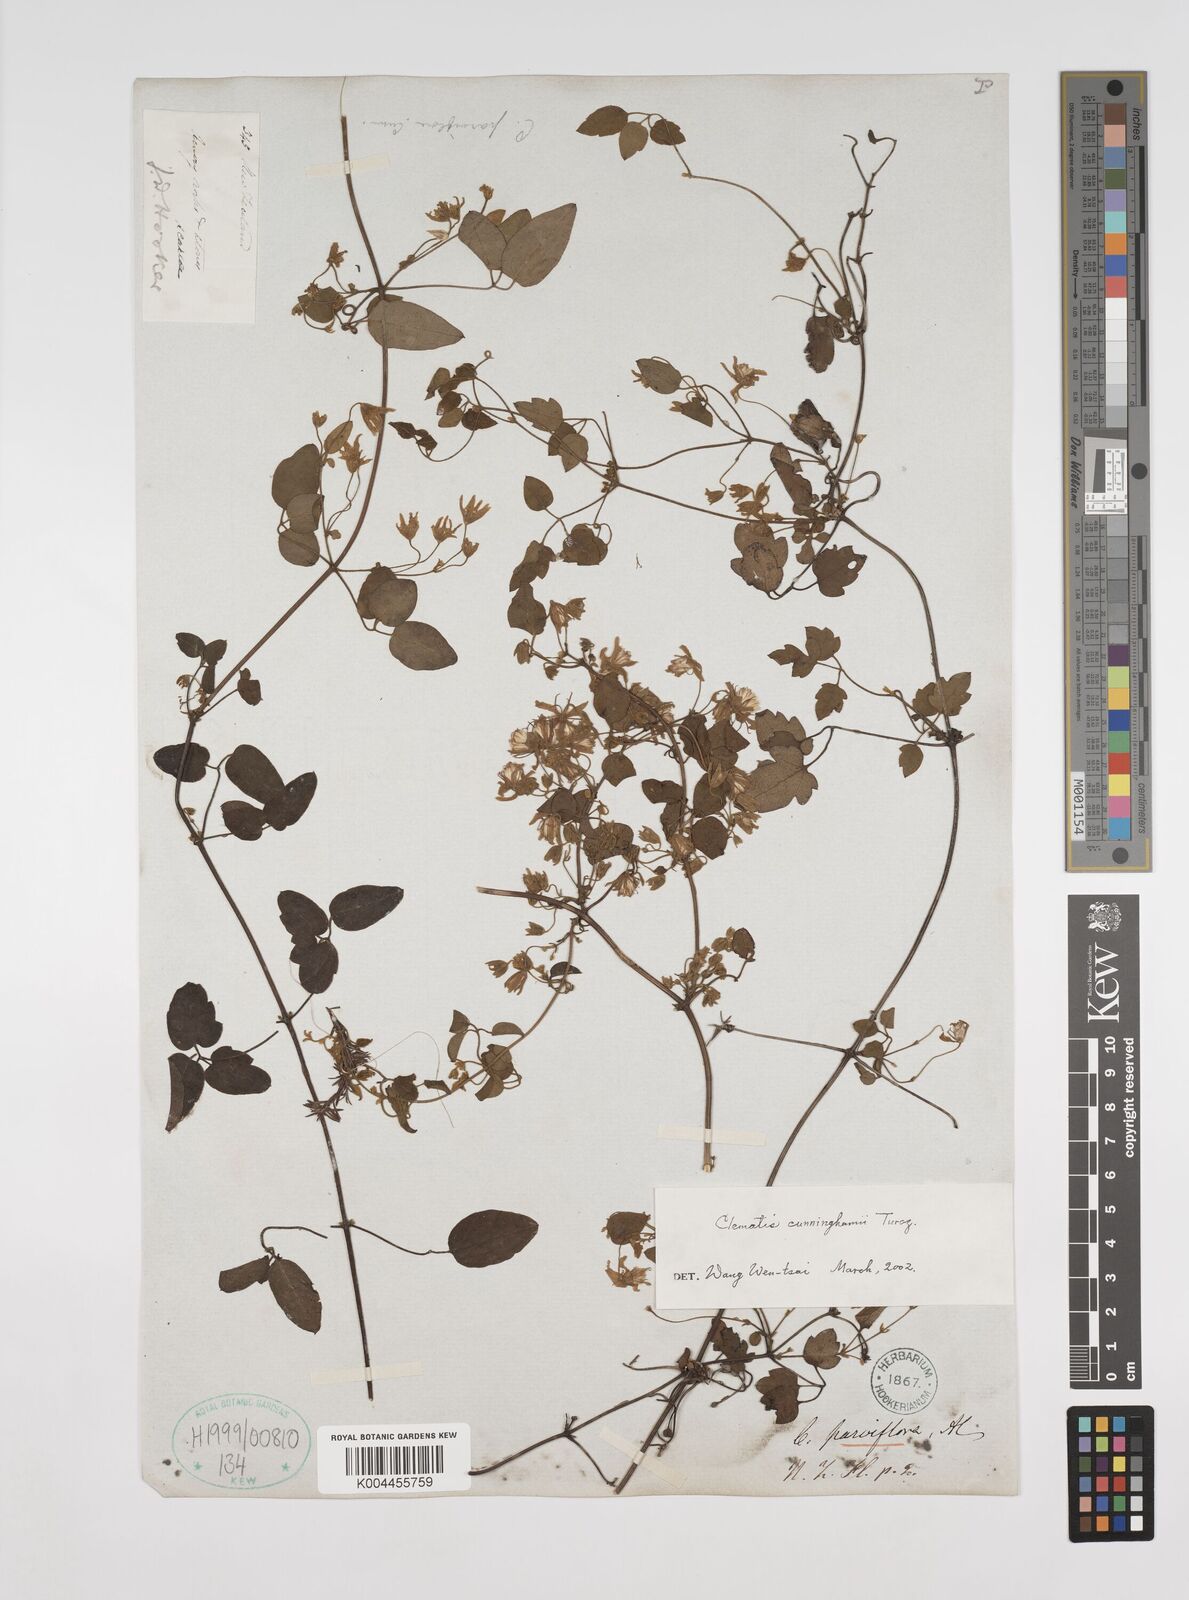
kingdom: Plantae
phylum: Tracheophyta
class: Magnoliopsida
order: Ranunculales
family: Ranunculaceae
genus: Clematis
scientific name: Clematis cunninghamii
